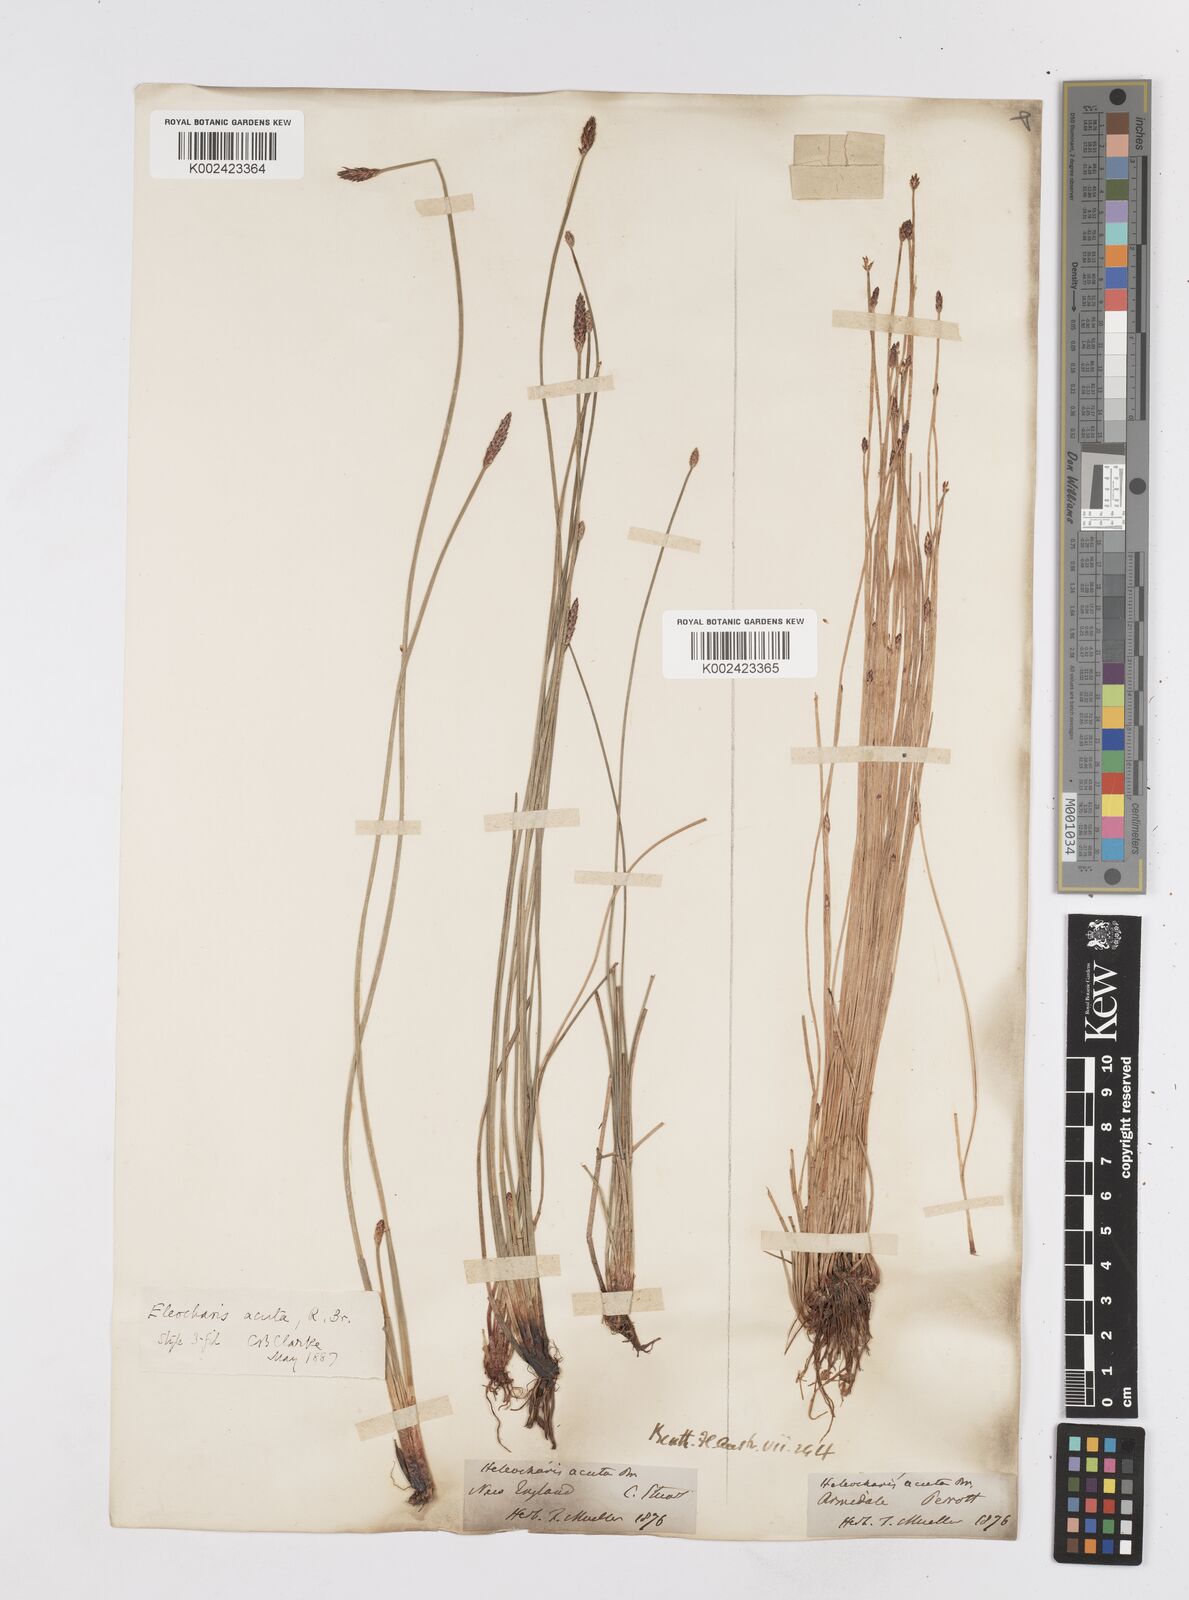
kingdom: Plantae
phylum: Tracheophyta
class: Liliopsida
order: Poales
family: Cyperaceae
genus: Eleocharis
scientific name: Eleocharis acuta
